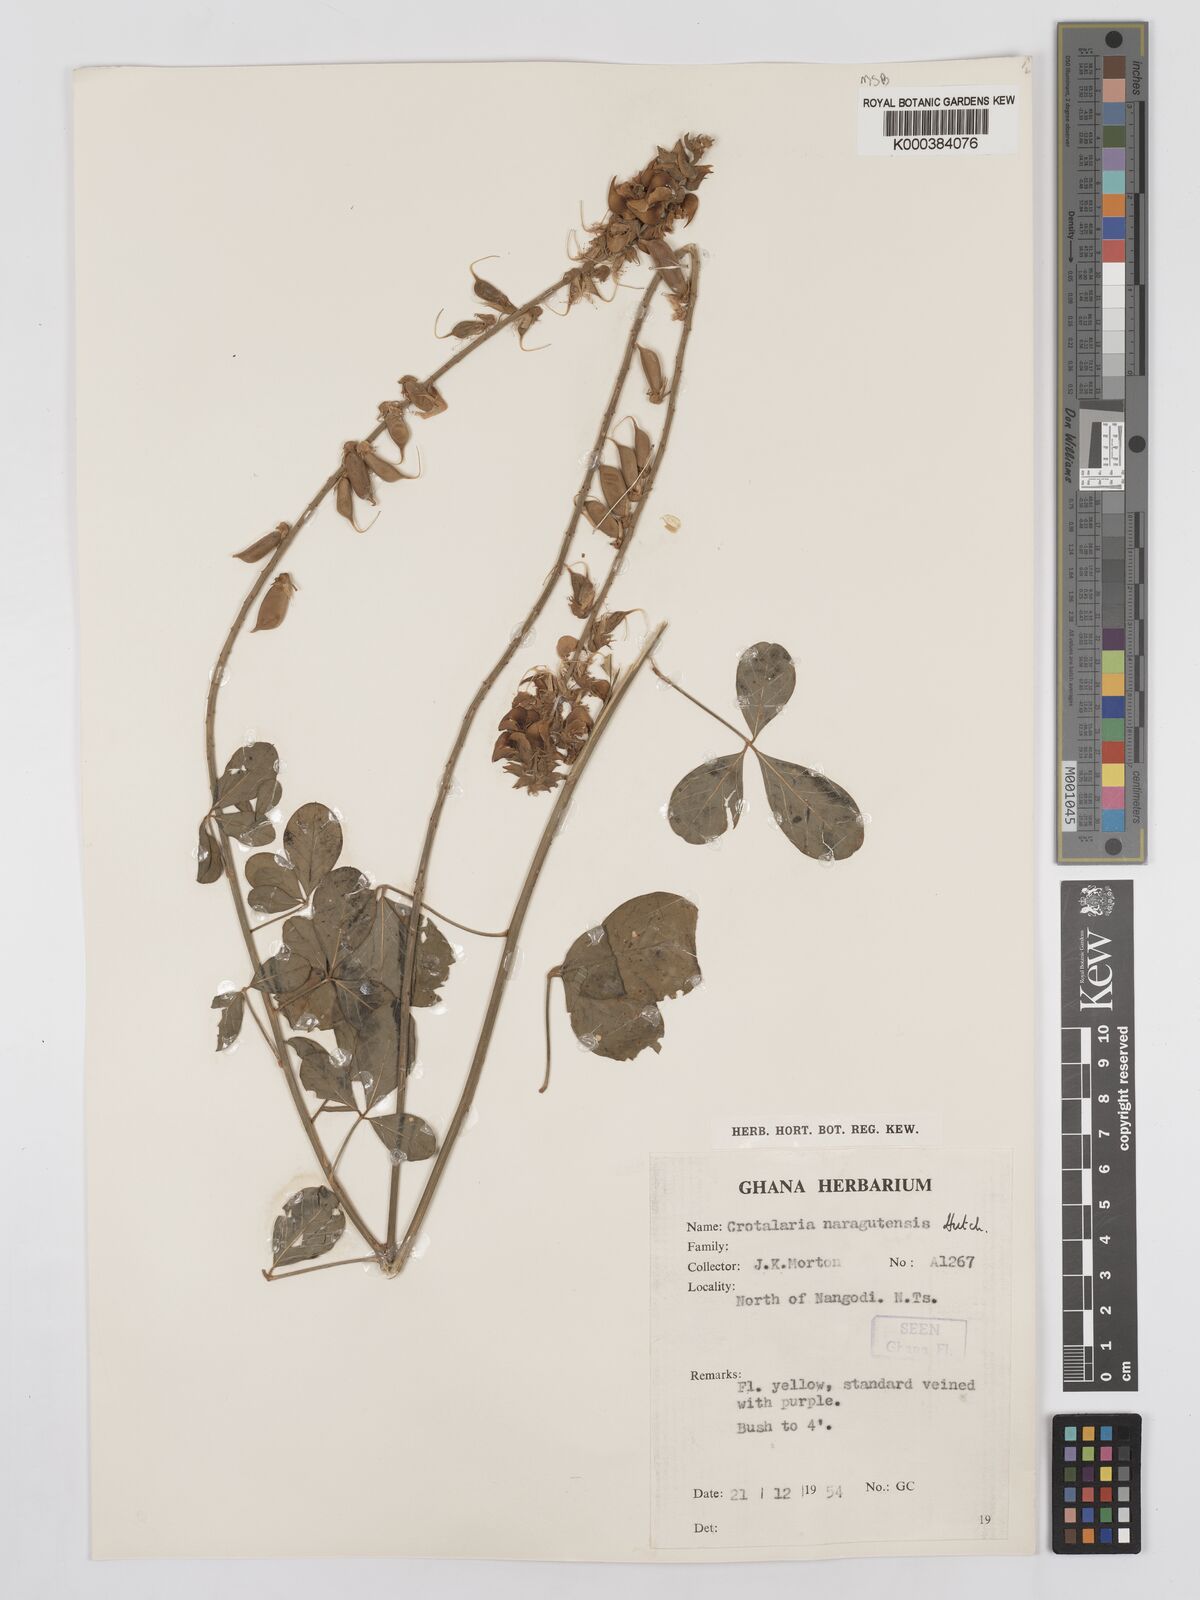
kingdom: Plantae
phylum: Tracheophyta
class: Magnoliopsida
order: Fabales
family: Fabaceae
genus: Crotalaria
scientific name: Crotalaria naragutensis
